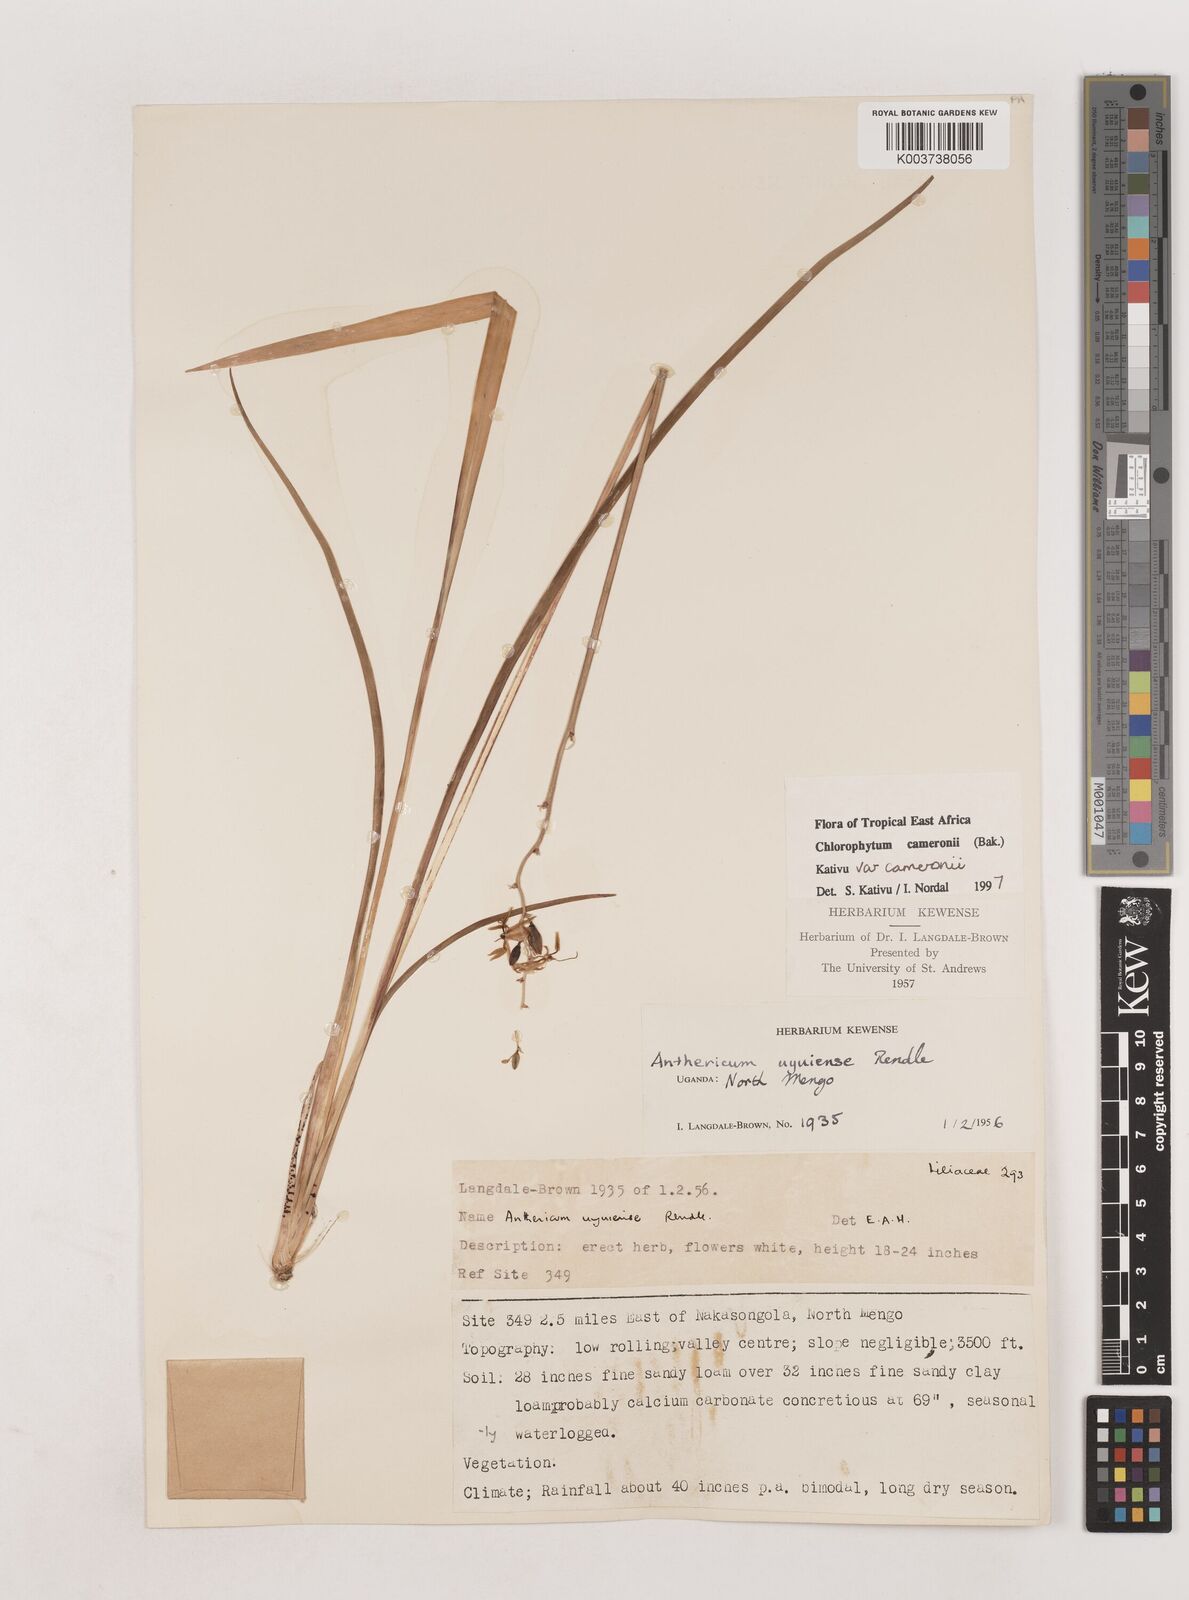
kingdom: Plantae
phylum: Tracheophyta
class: Liliopsida
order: Asparagales
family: Asparagaceae
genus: Chlorophytum
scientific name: Chlorophytum cameronii
